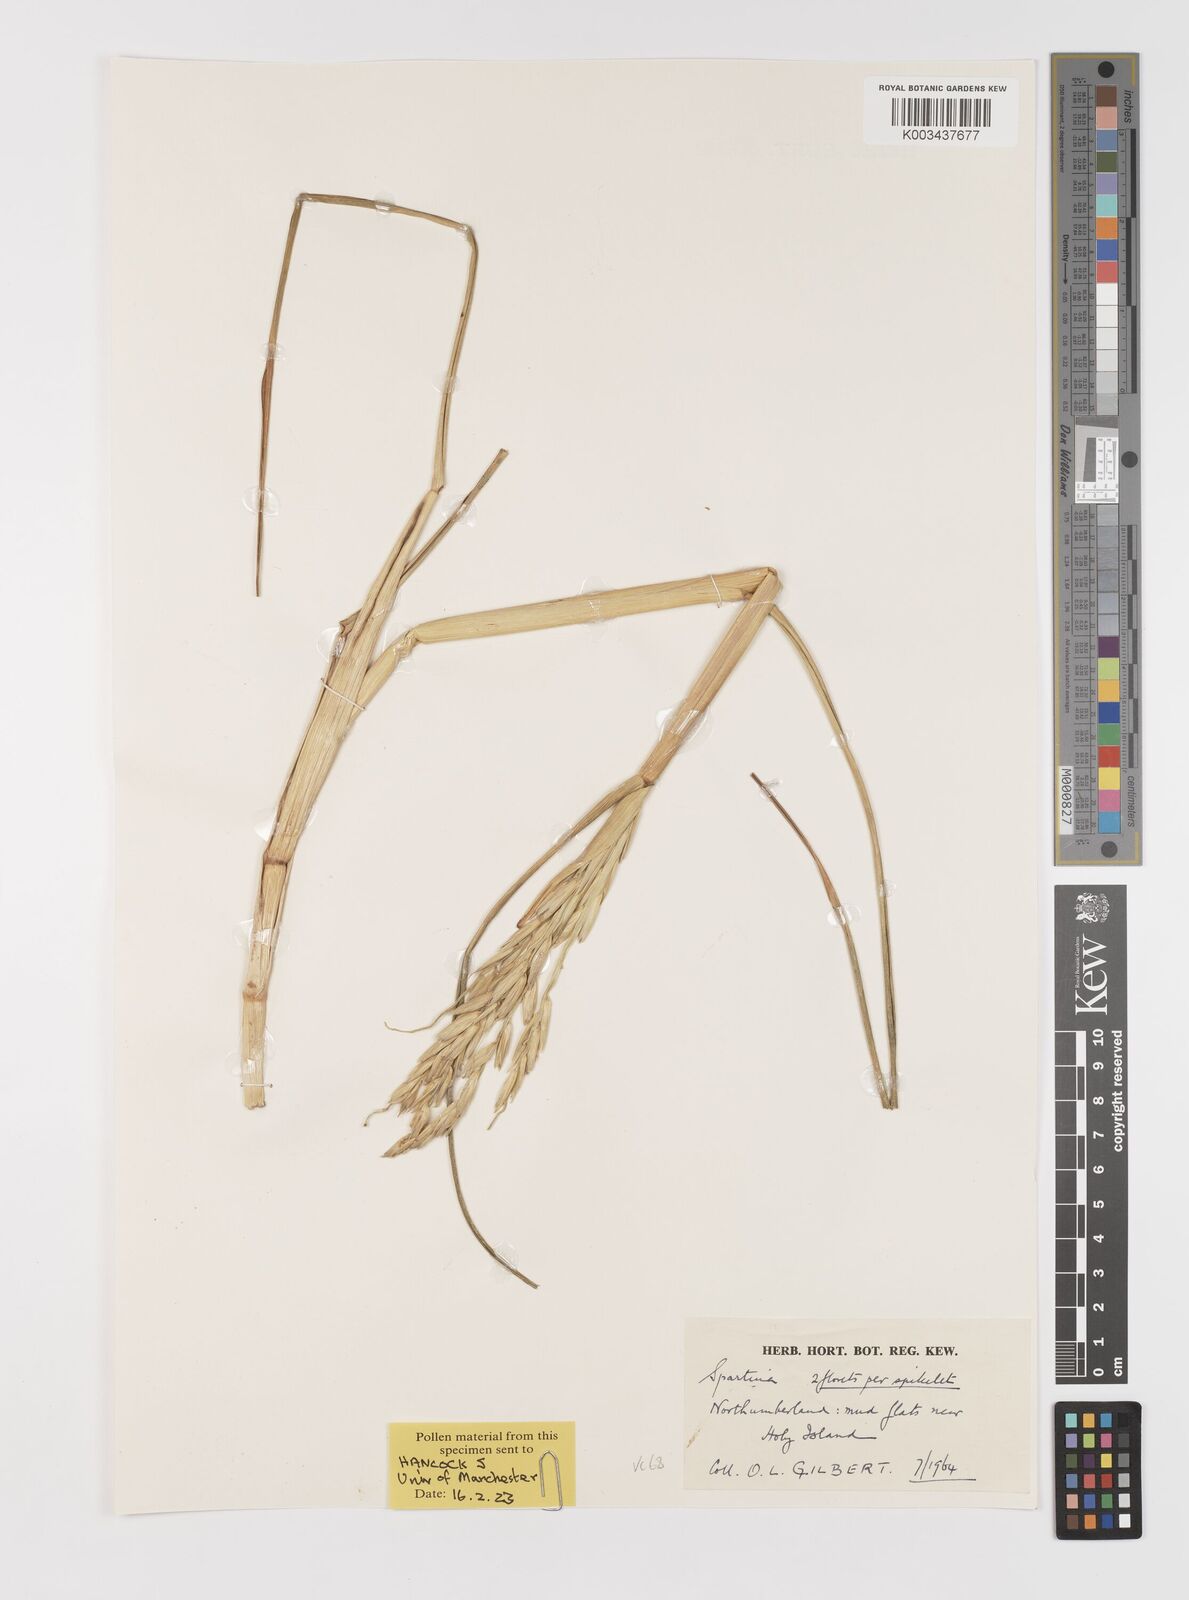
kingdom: Plantae
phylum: Tracheophyta
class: Liliopsida
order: Poales
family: Poaceae
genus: Sporobolus
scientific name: Sporobolus anglicus
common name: English cordgrass
